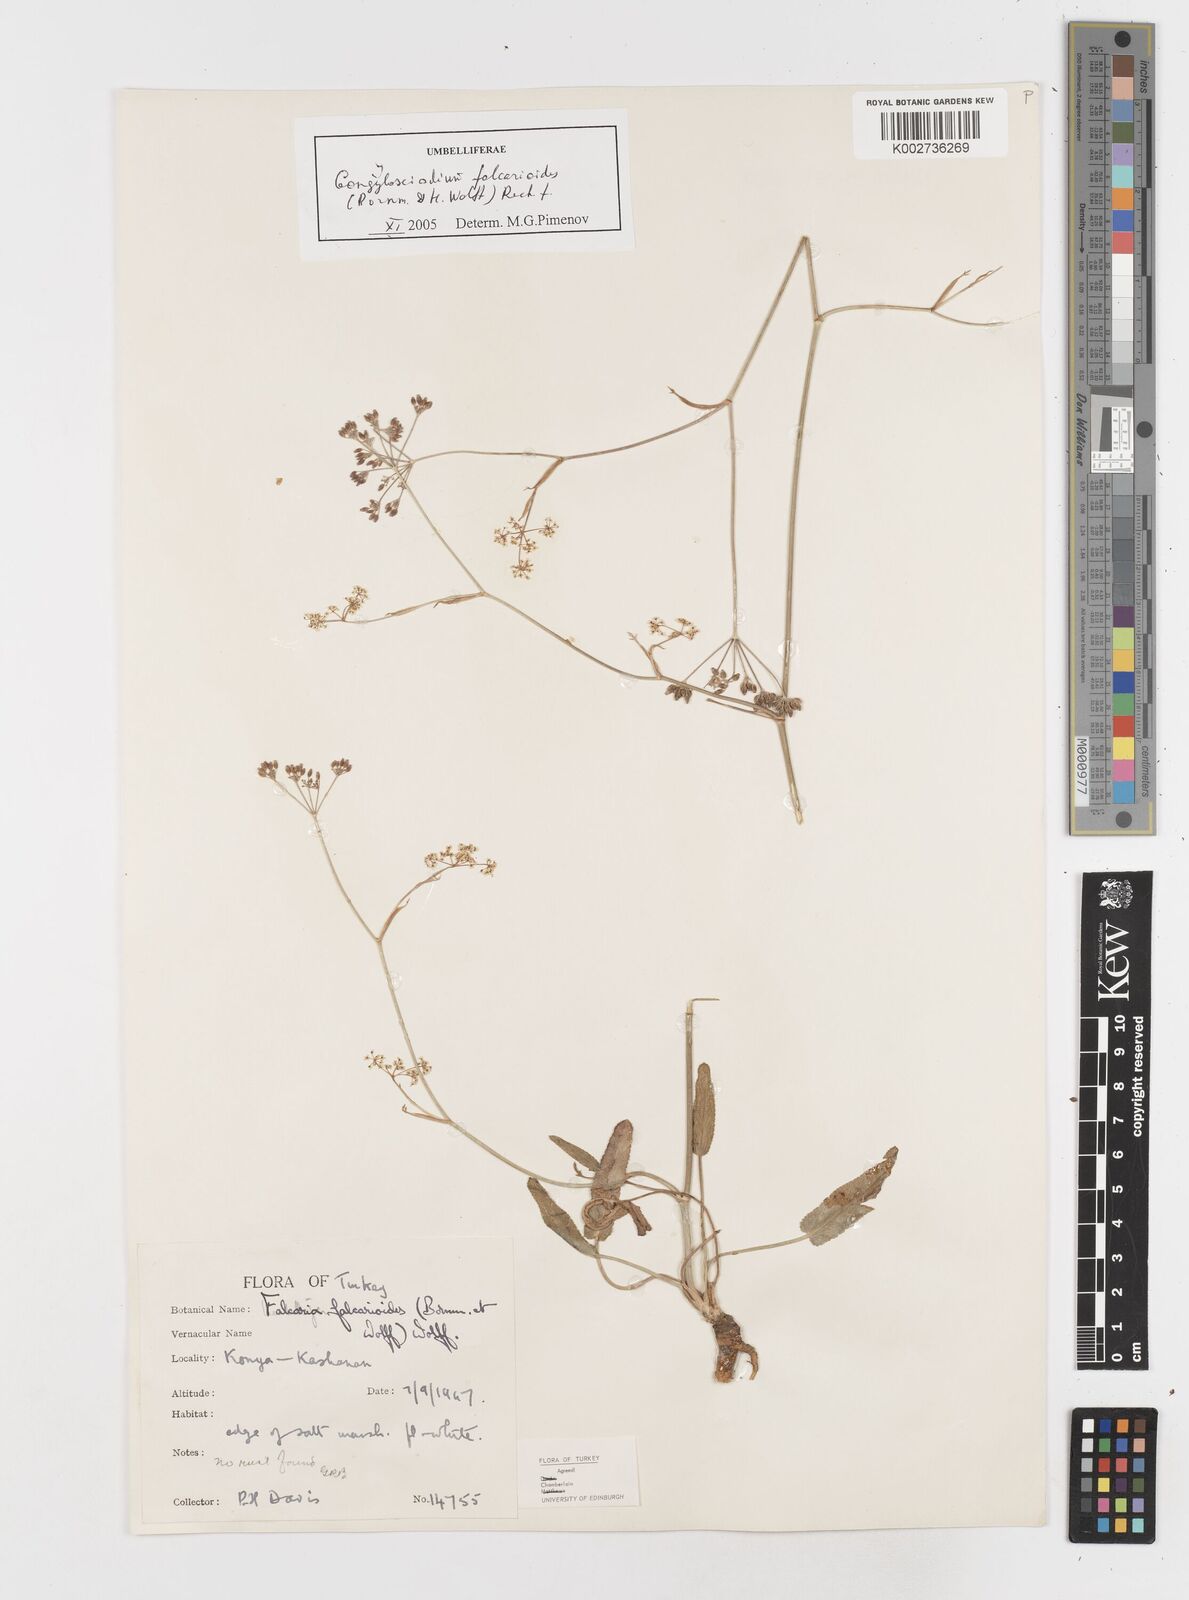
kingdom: Plantae
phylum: Tracheophyta
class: Magnoliopsida
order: Apiales
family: Apiaceae
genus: Gongylosciadium
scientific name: Gongylosciadium falcarioides
